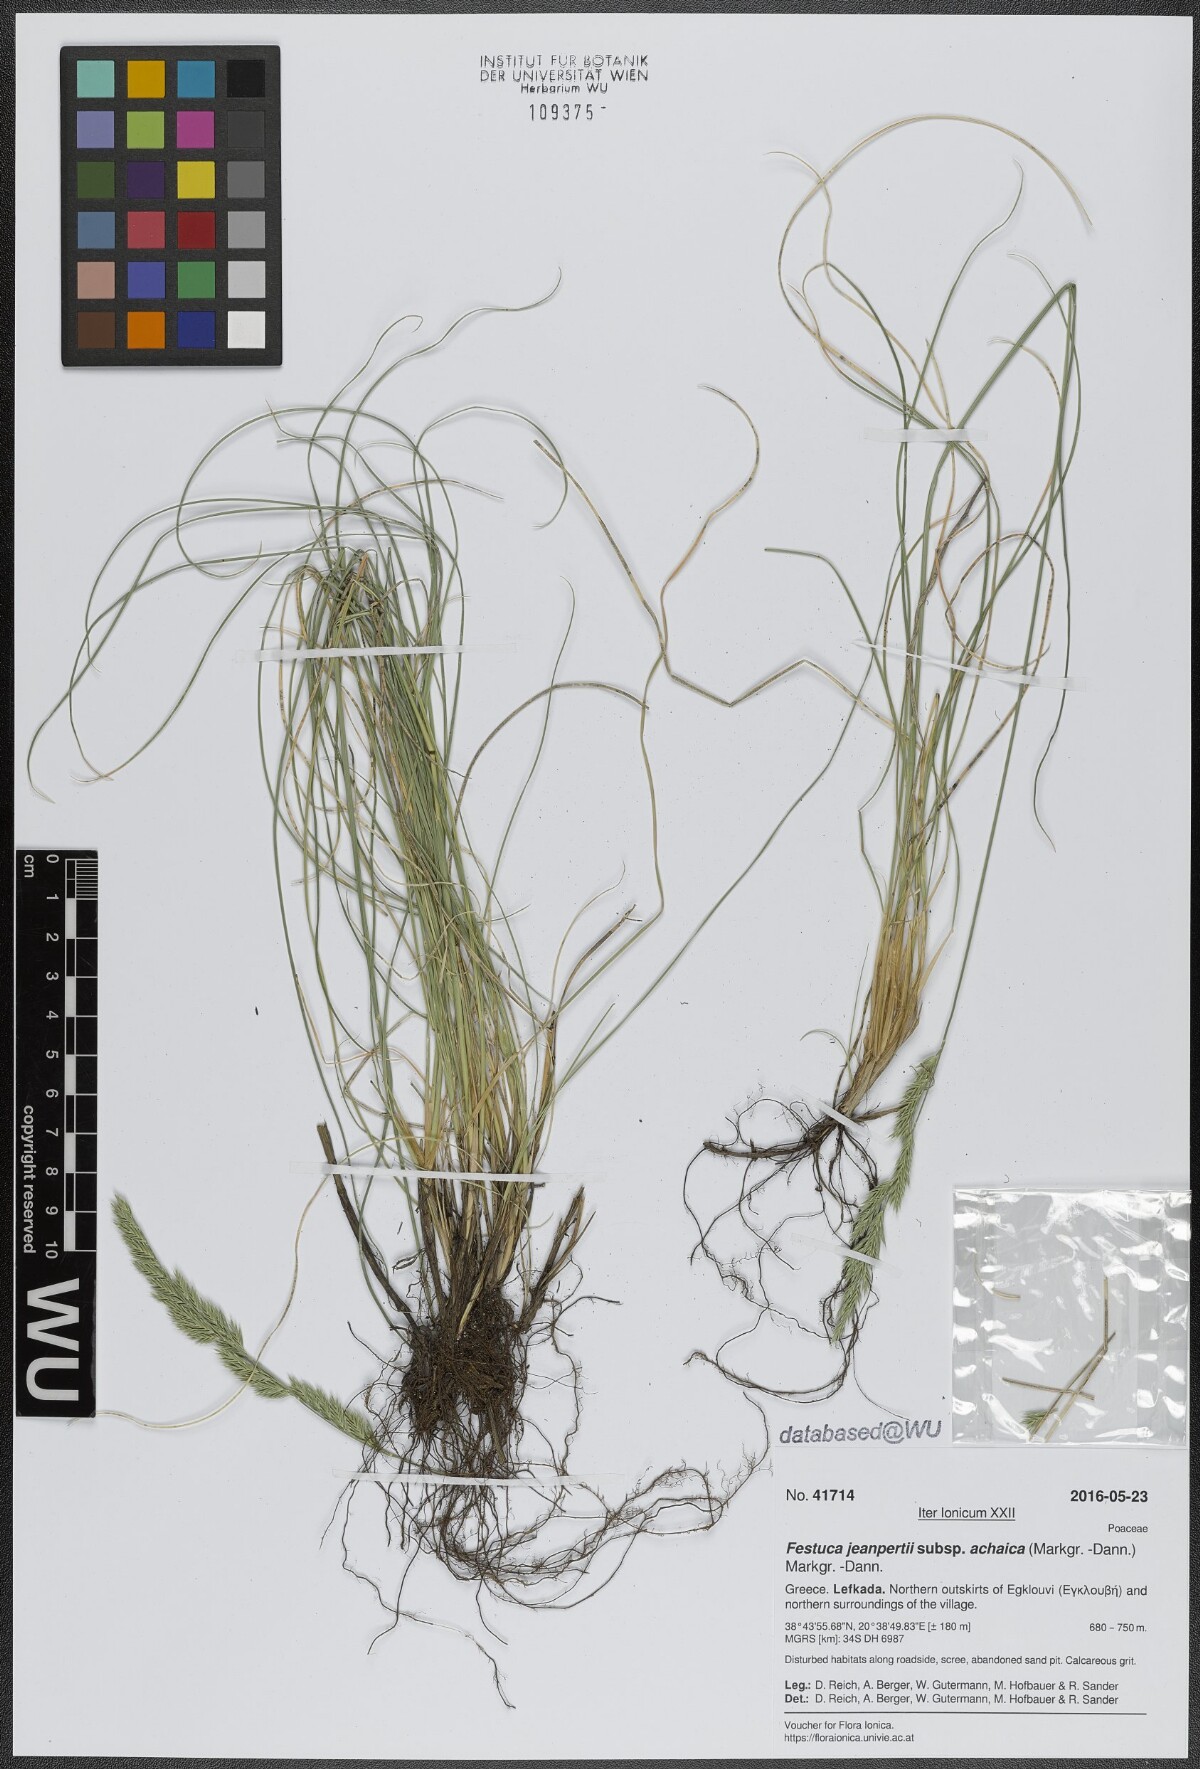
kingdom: Plantae
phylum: Tracheophyta
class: Liliopsida
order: Poales
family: Poaceae
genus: Festuca
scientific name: Festuca jeanpertii
